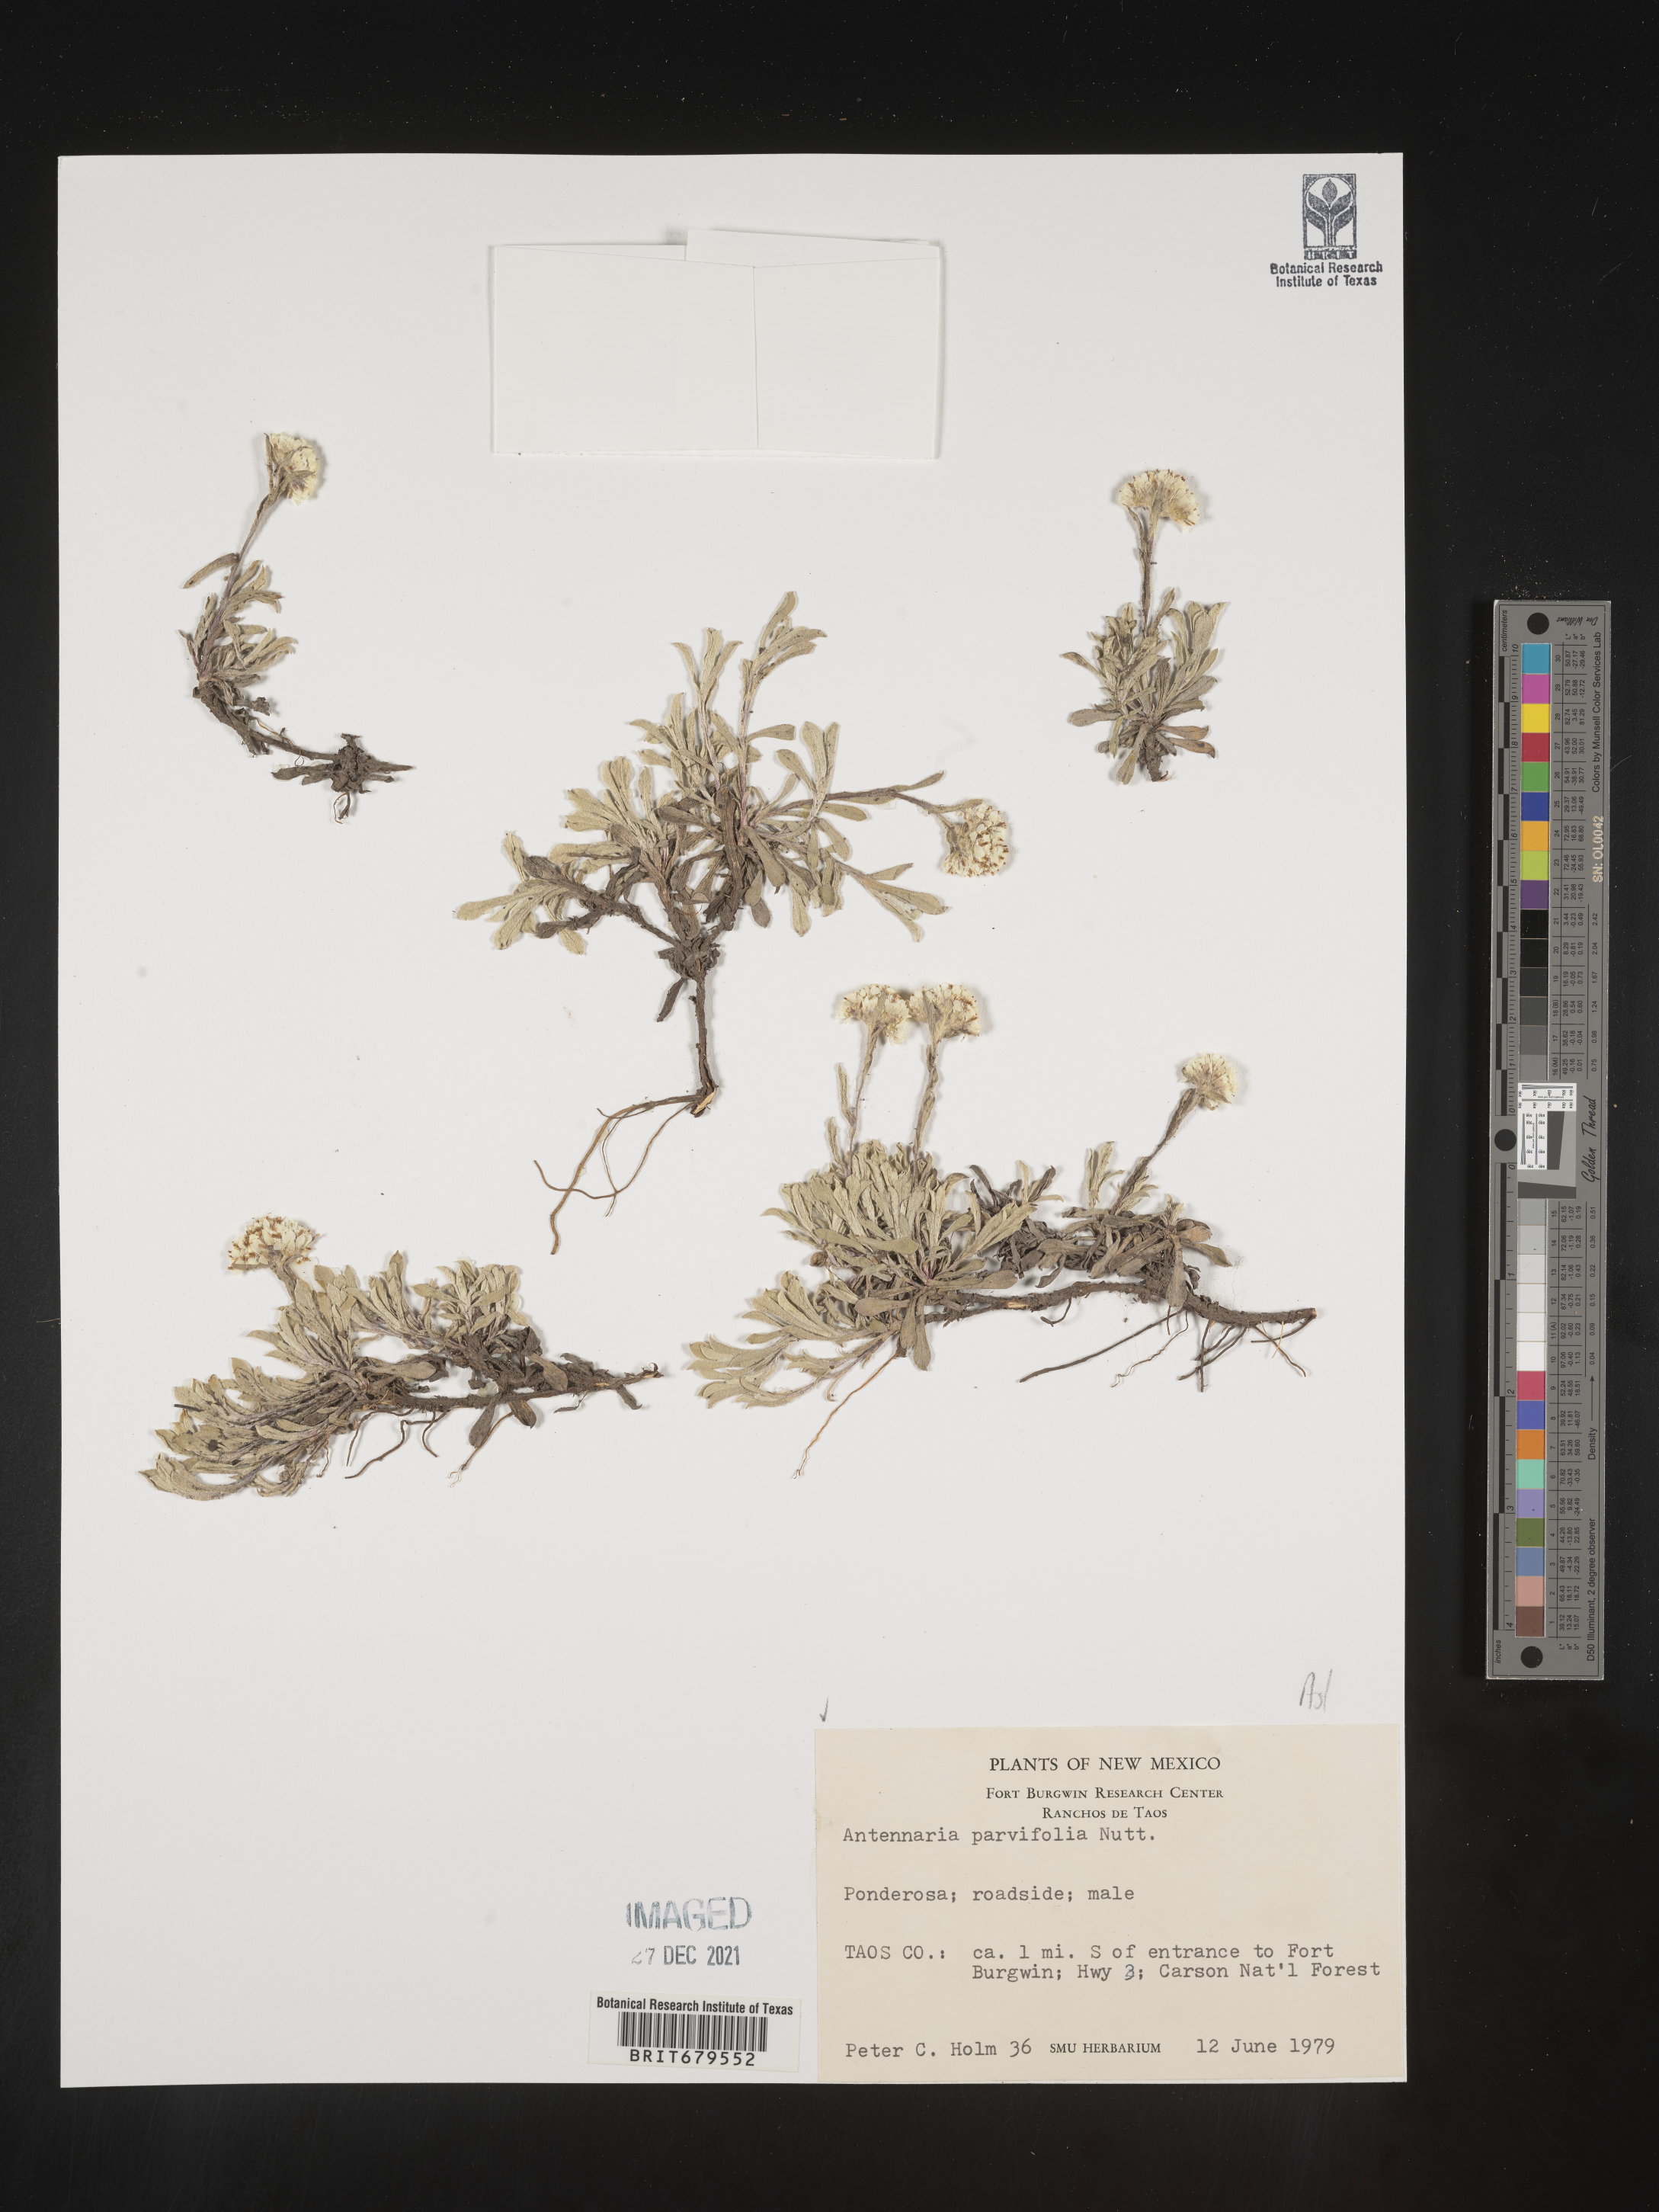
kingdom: Plantae
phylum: Tracheophyta
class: Magnoliopsida
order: Asterales
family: Asteraceae
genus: Antennaria
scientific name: Antennaria parvifolia
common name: Nuttall's pussytoes
